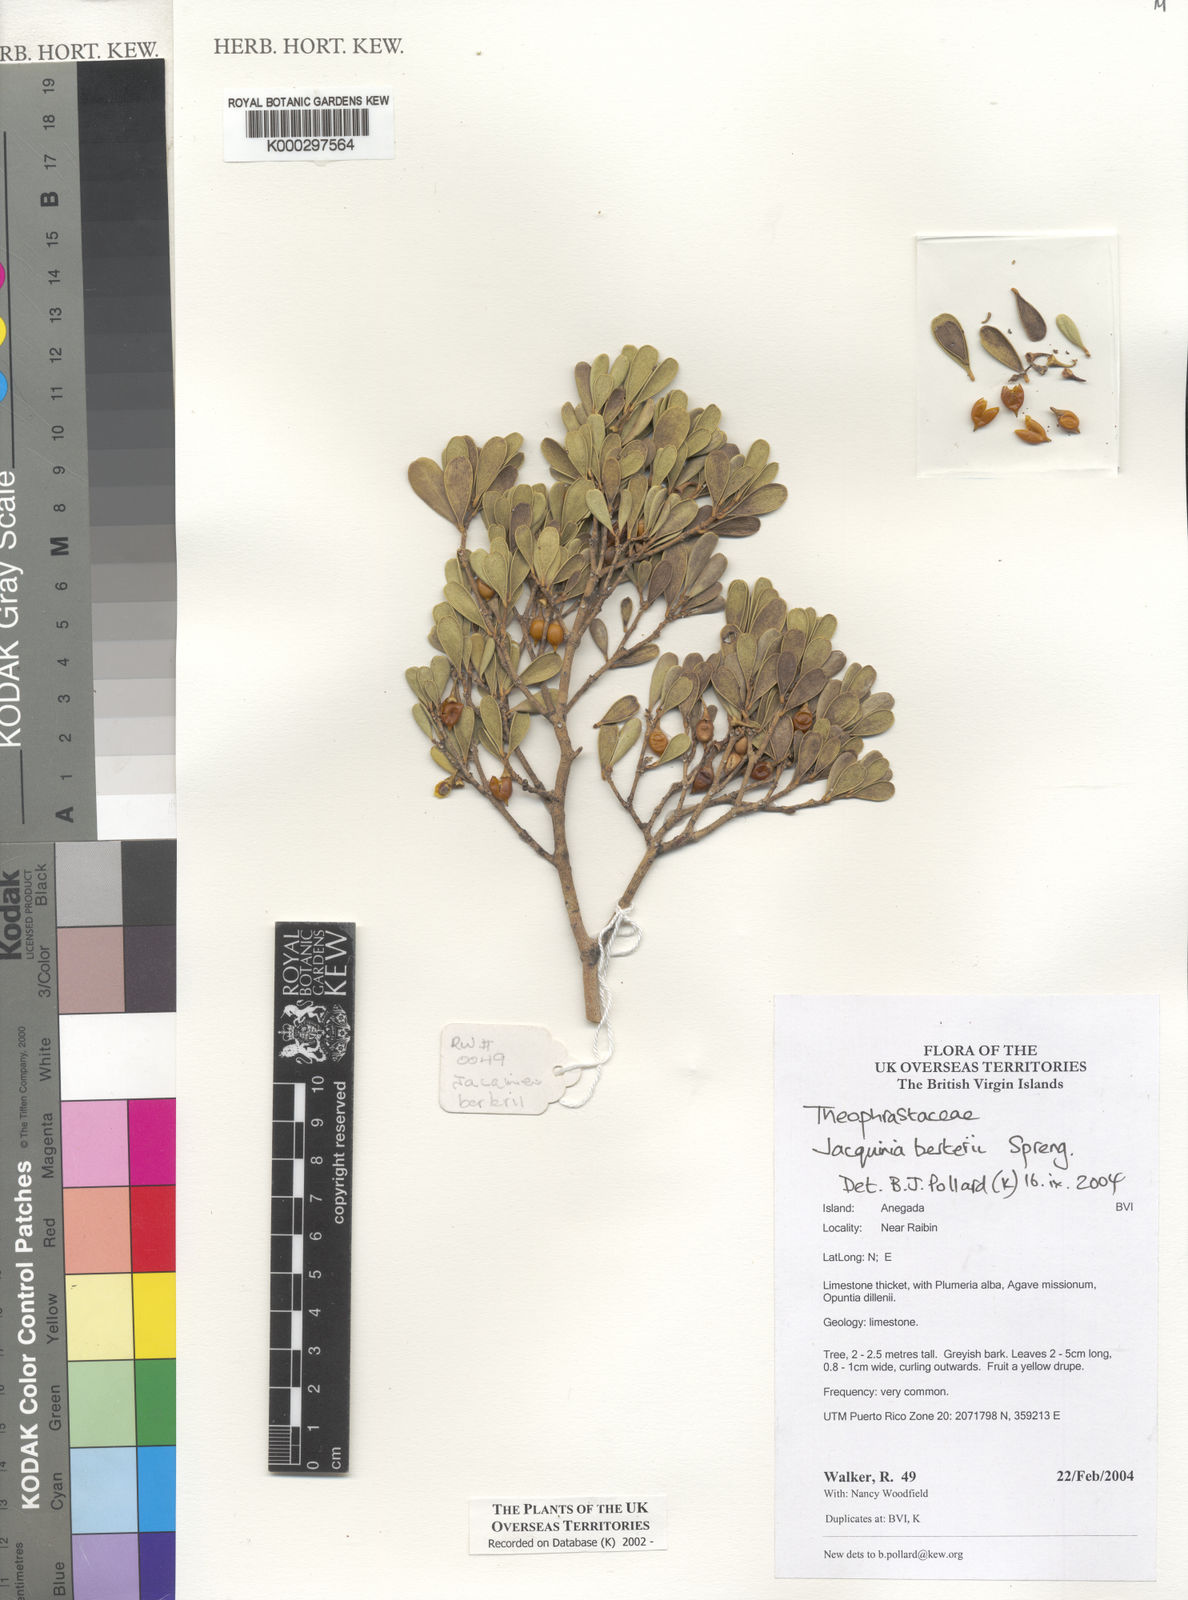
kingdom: Plantae
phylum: Tracheophyta
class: Magnoliopsida
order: Ericales
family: Primulaceae
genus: Jacquinia
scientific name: Jacquinia
